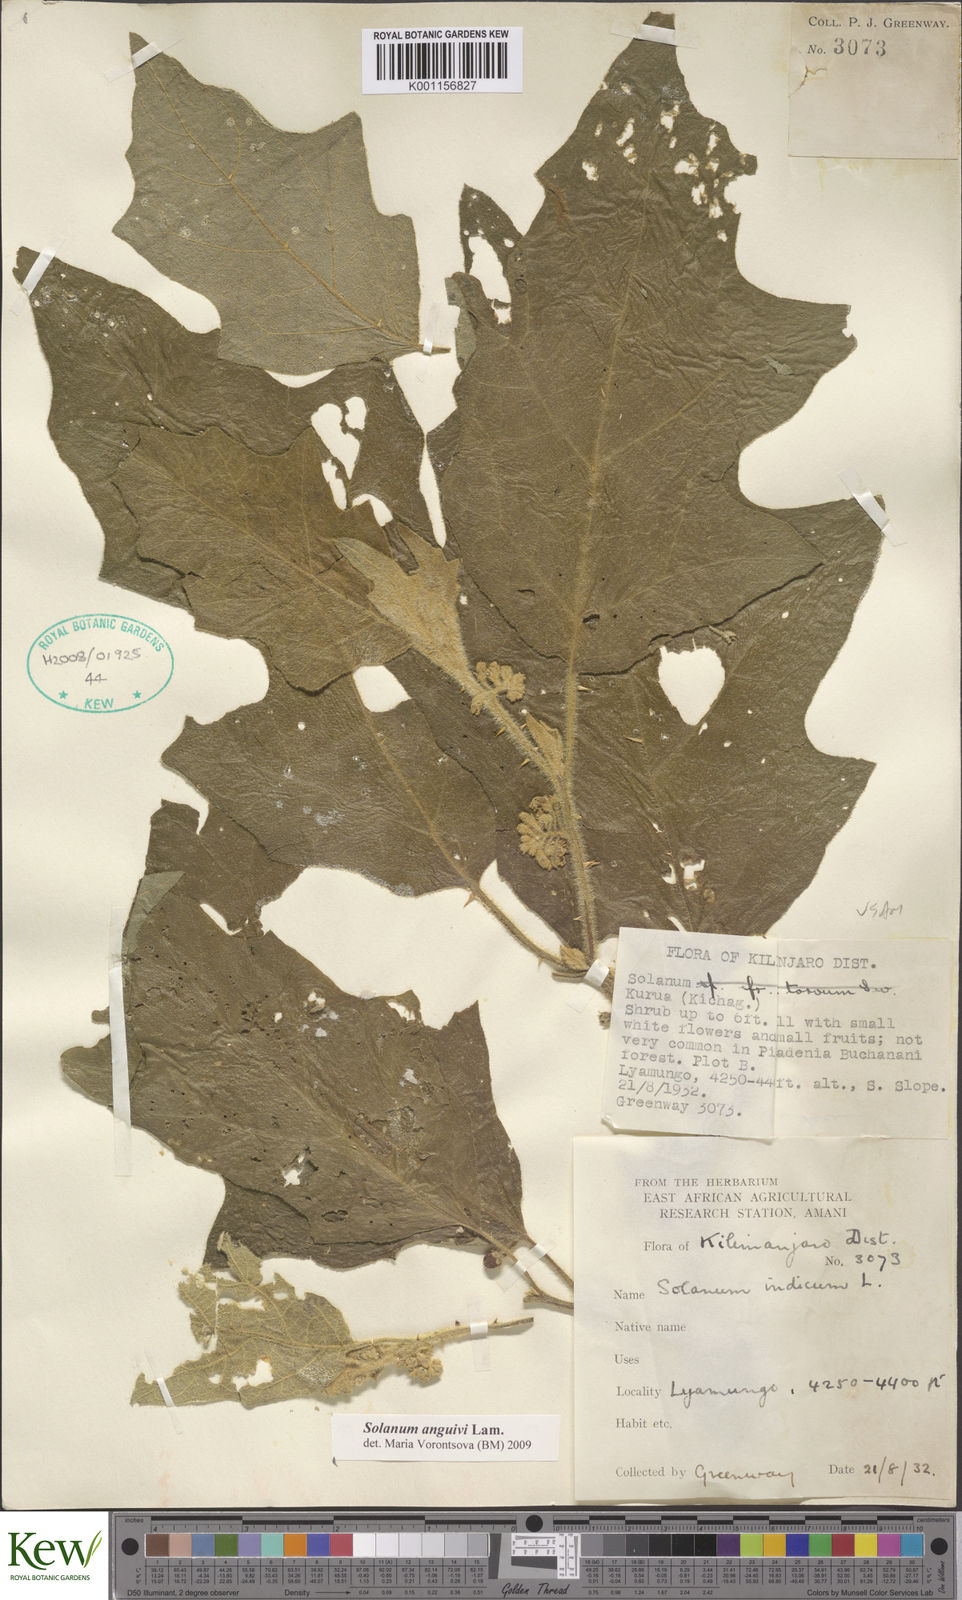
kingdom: Plantae
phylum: Tracheophyta
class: Magnoliopsida
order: Solanales
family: Solanaceae
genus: Solanum
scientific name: Solanum anguivi
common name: Forest bitterberry
